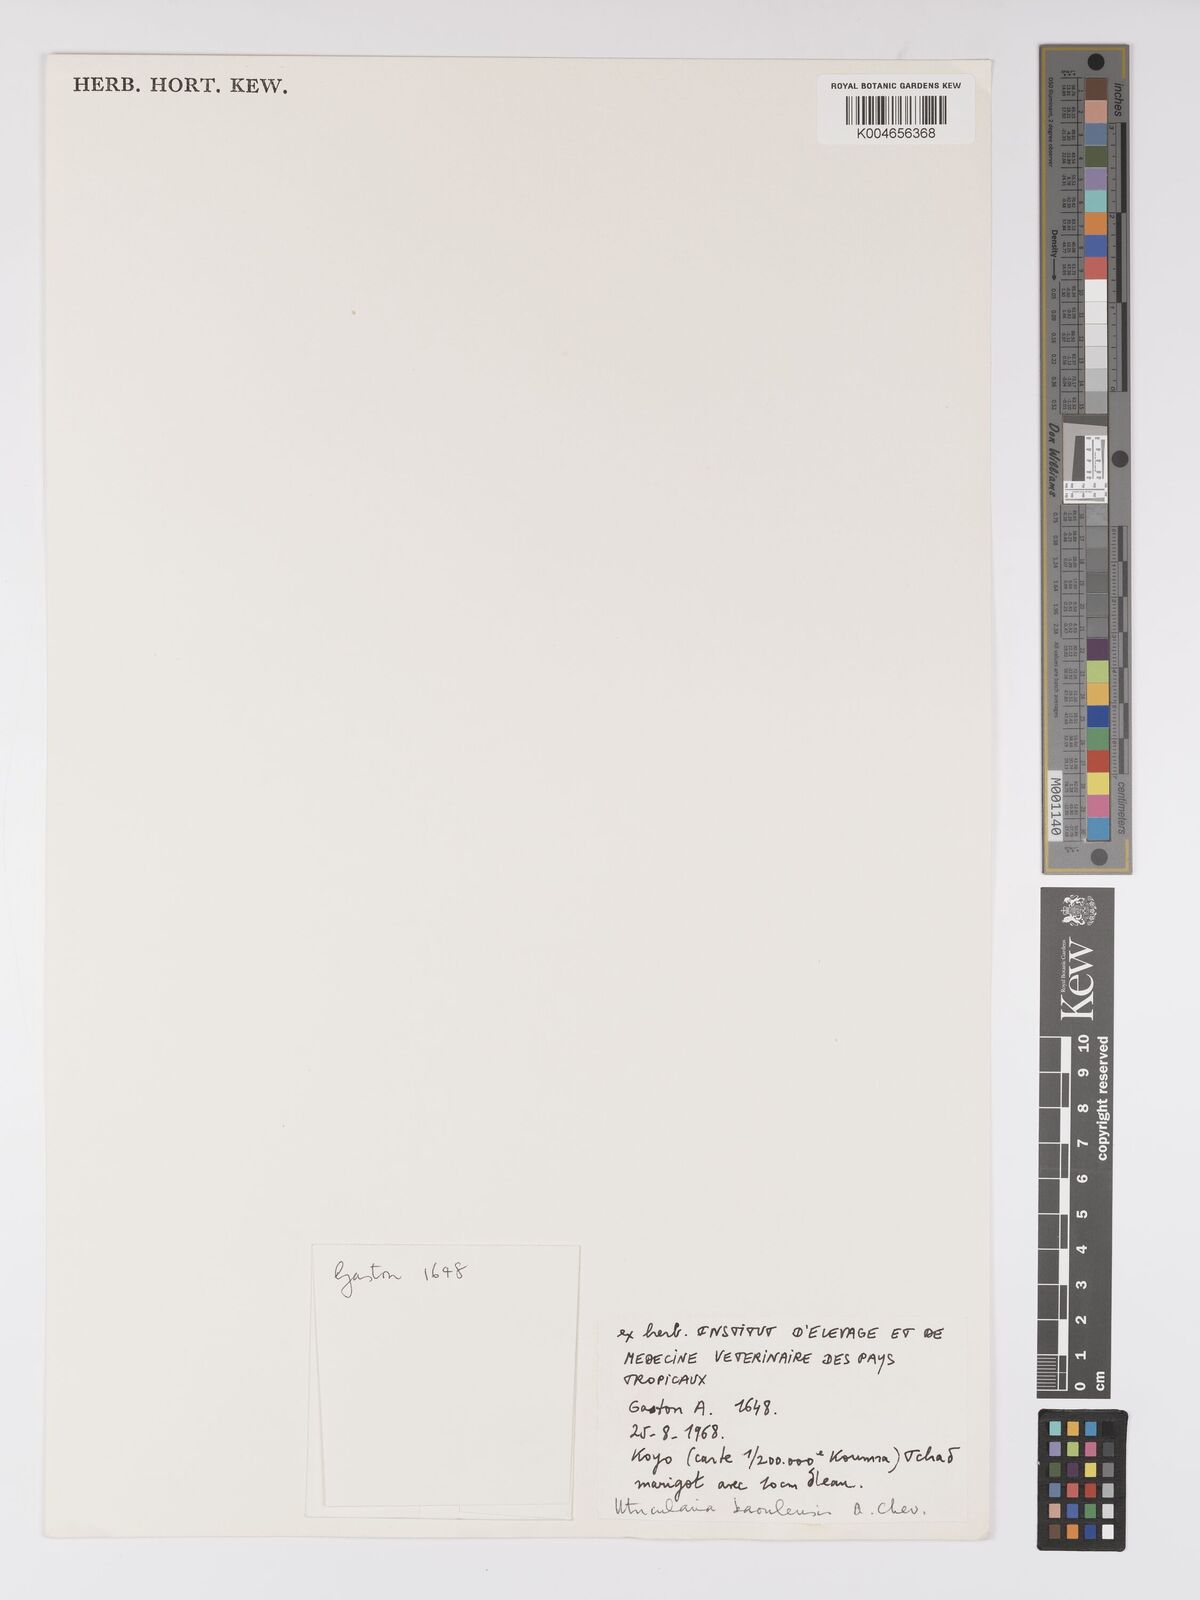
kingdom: Plantae
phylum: Tracheophyta
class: Magnoliopsida
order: Lamiales
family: Lentibulariaceae
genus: Utricularia
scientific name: Utricularia foveolata
